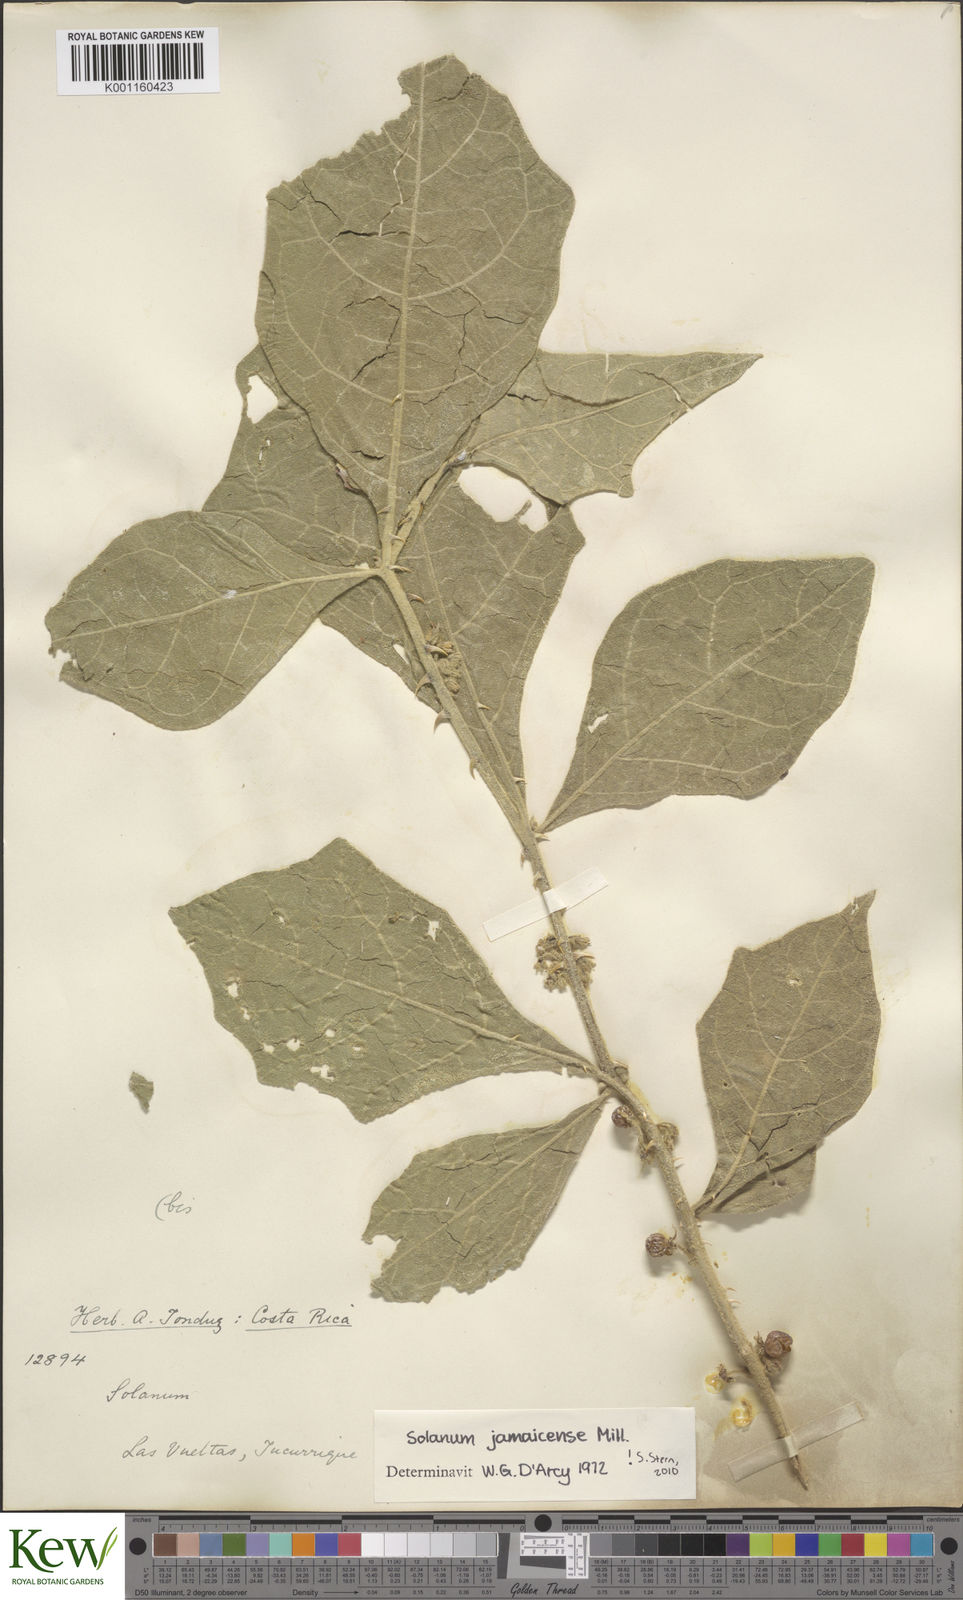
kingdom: Plantae
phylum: Tracheophyta
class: Magnoliopsida
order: Solanales
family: Solanaceae
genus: Solanum
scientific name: Solanum jamaicense
